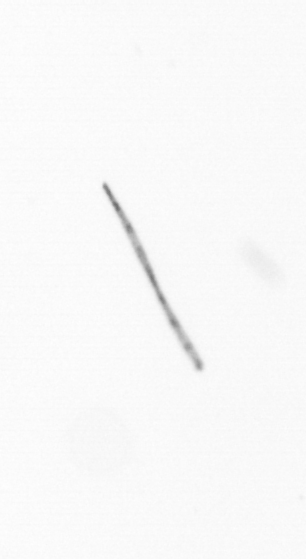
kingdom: Chromista
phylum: Ochrophyta
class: Bacillariophyceae
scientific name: Bacillariophyceae
